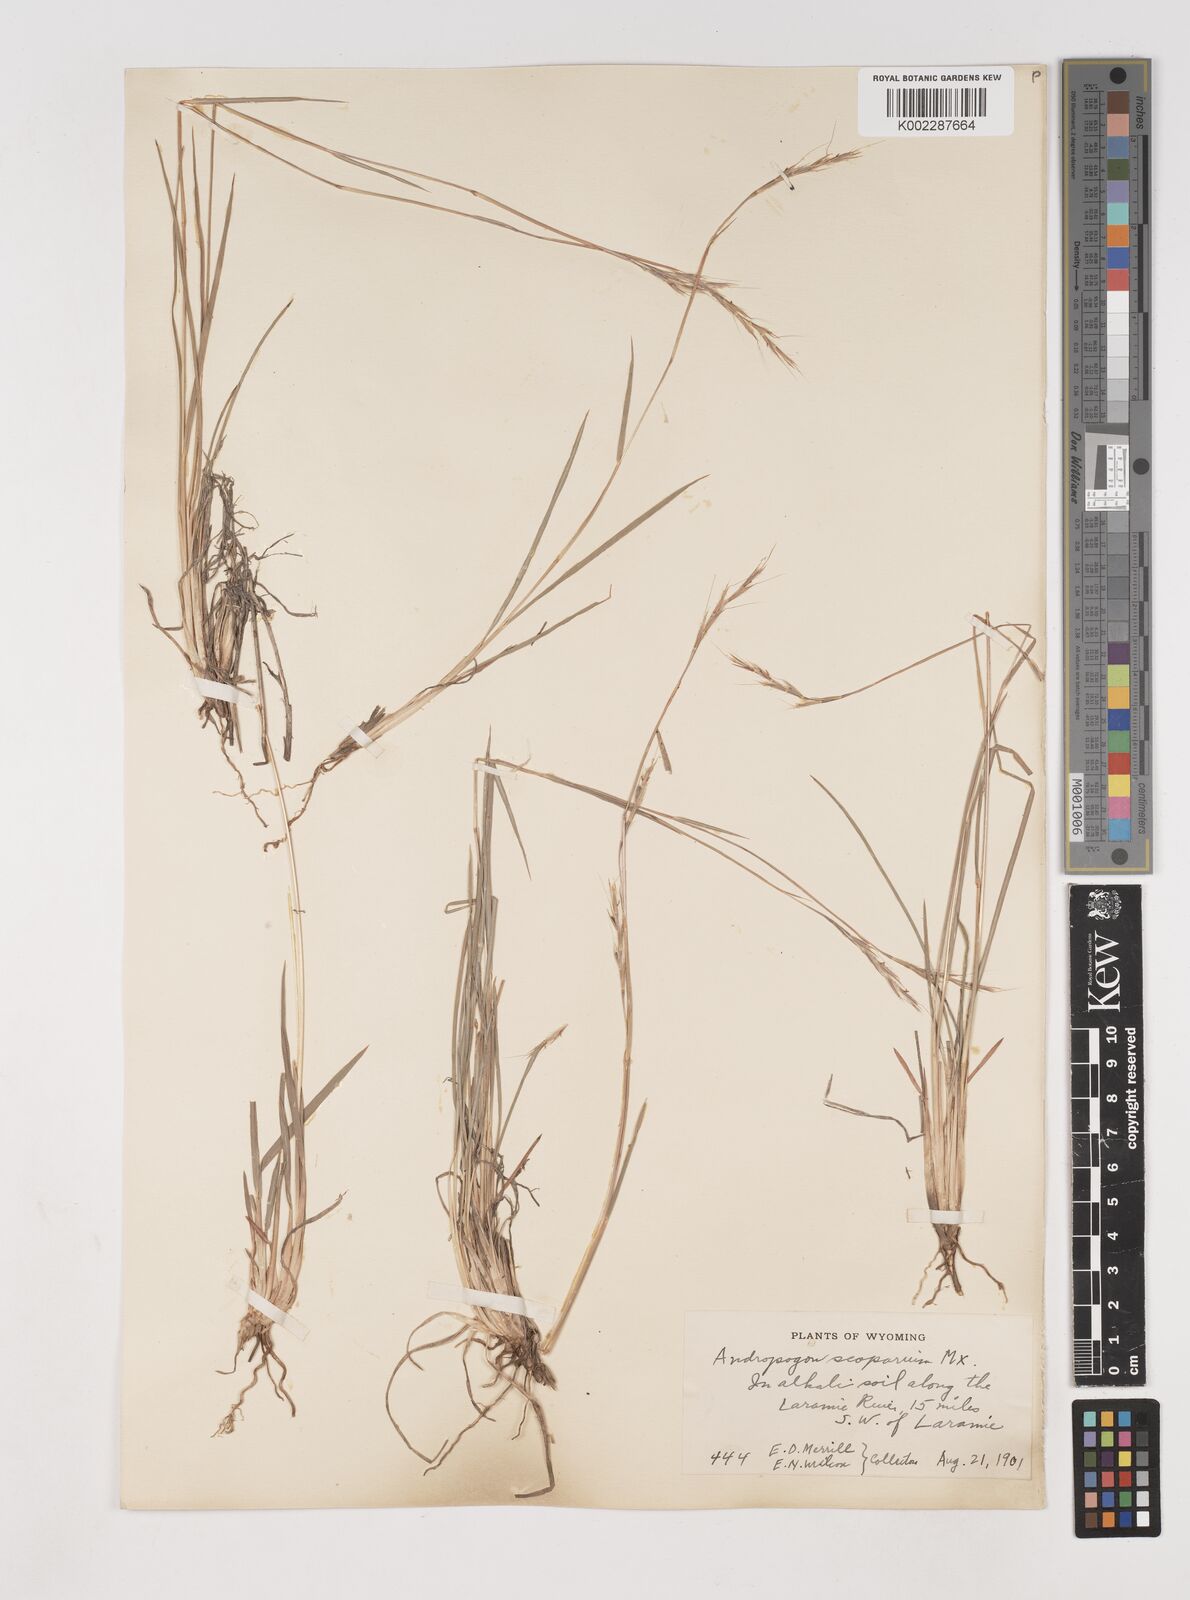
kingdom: Plantae
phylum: Tracheophyta
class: Liliopsida
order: Poales
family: Poaceae
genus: Schizachyrium
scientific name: Schizachyrium scoparium
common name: Little bluestem
